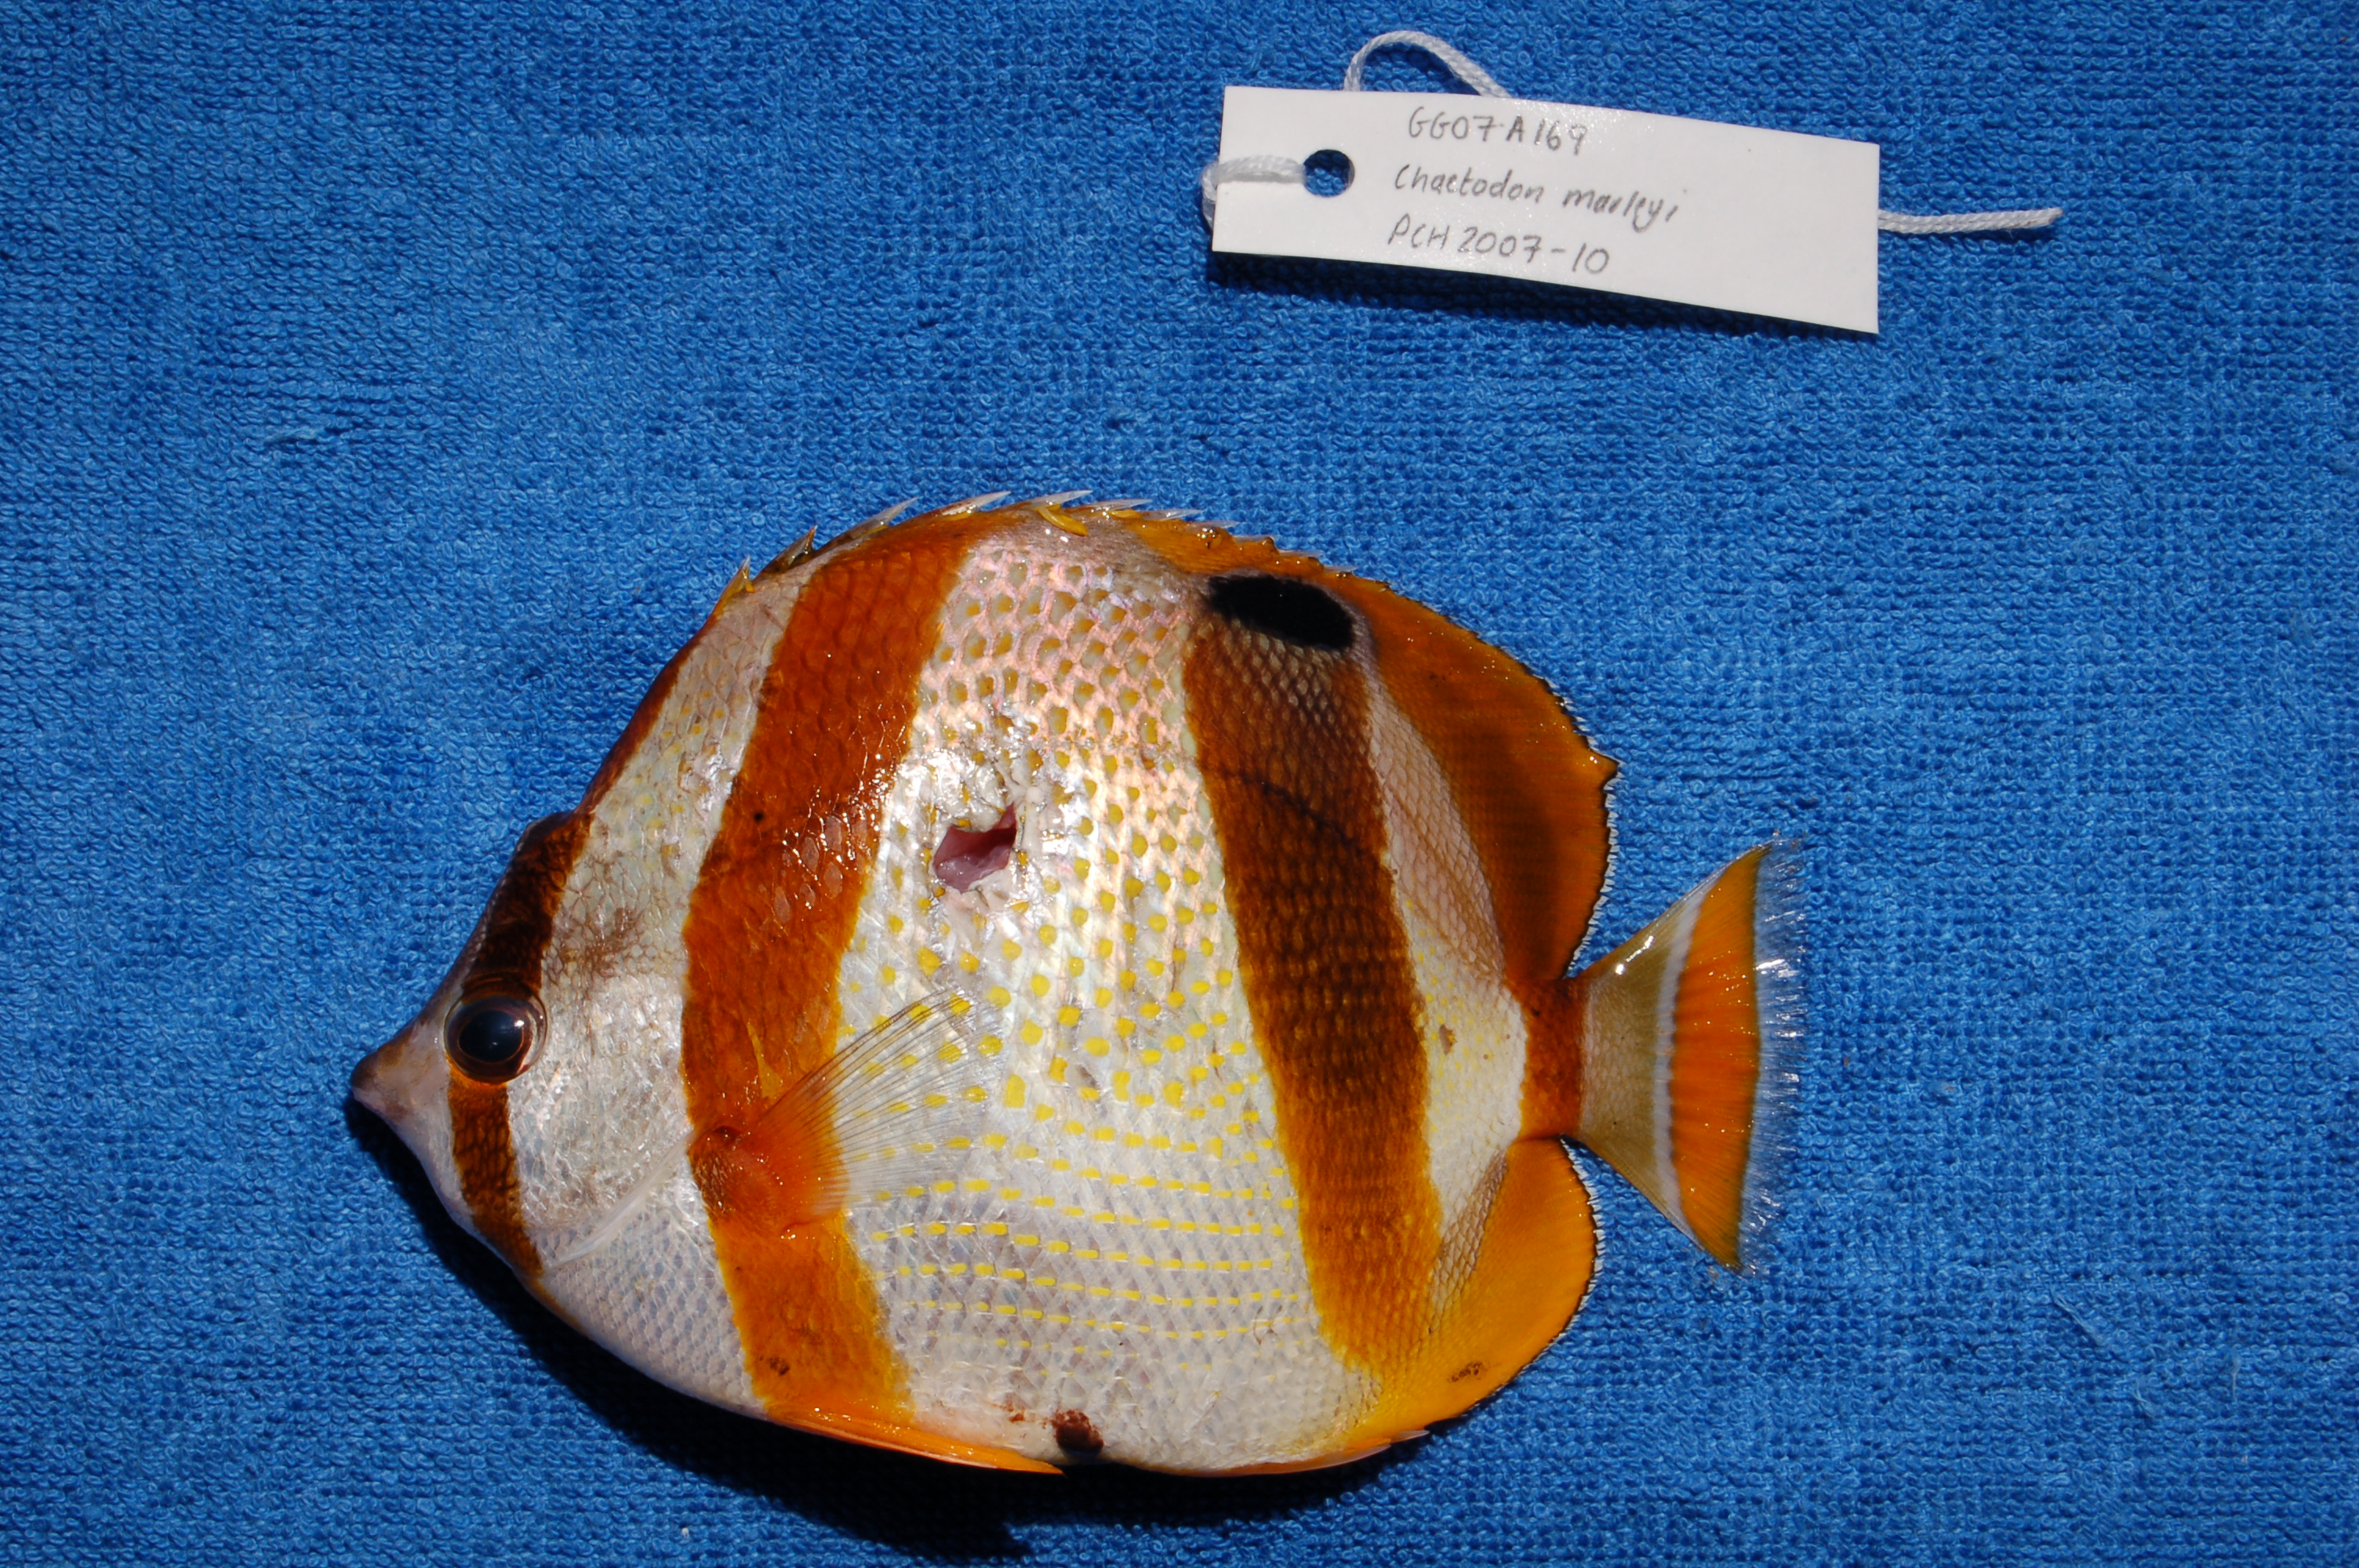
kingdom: Animalia
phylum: Chordata
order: Perciformes
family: Chaetodontidae
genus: Chaetodon
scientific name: Chaetodon marleyi
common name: Doubledash butterflyfish
